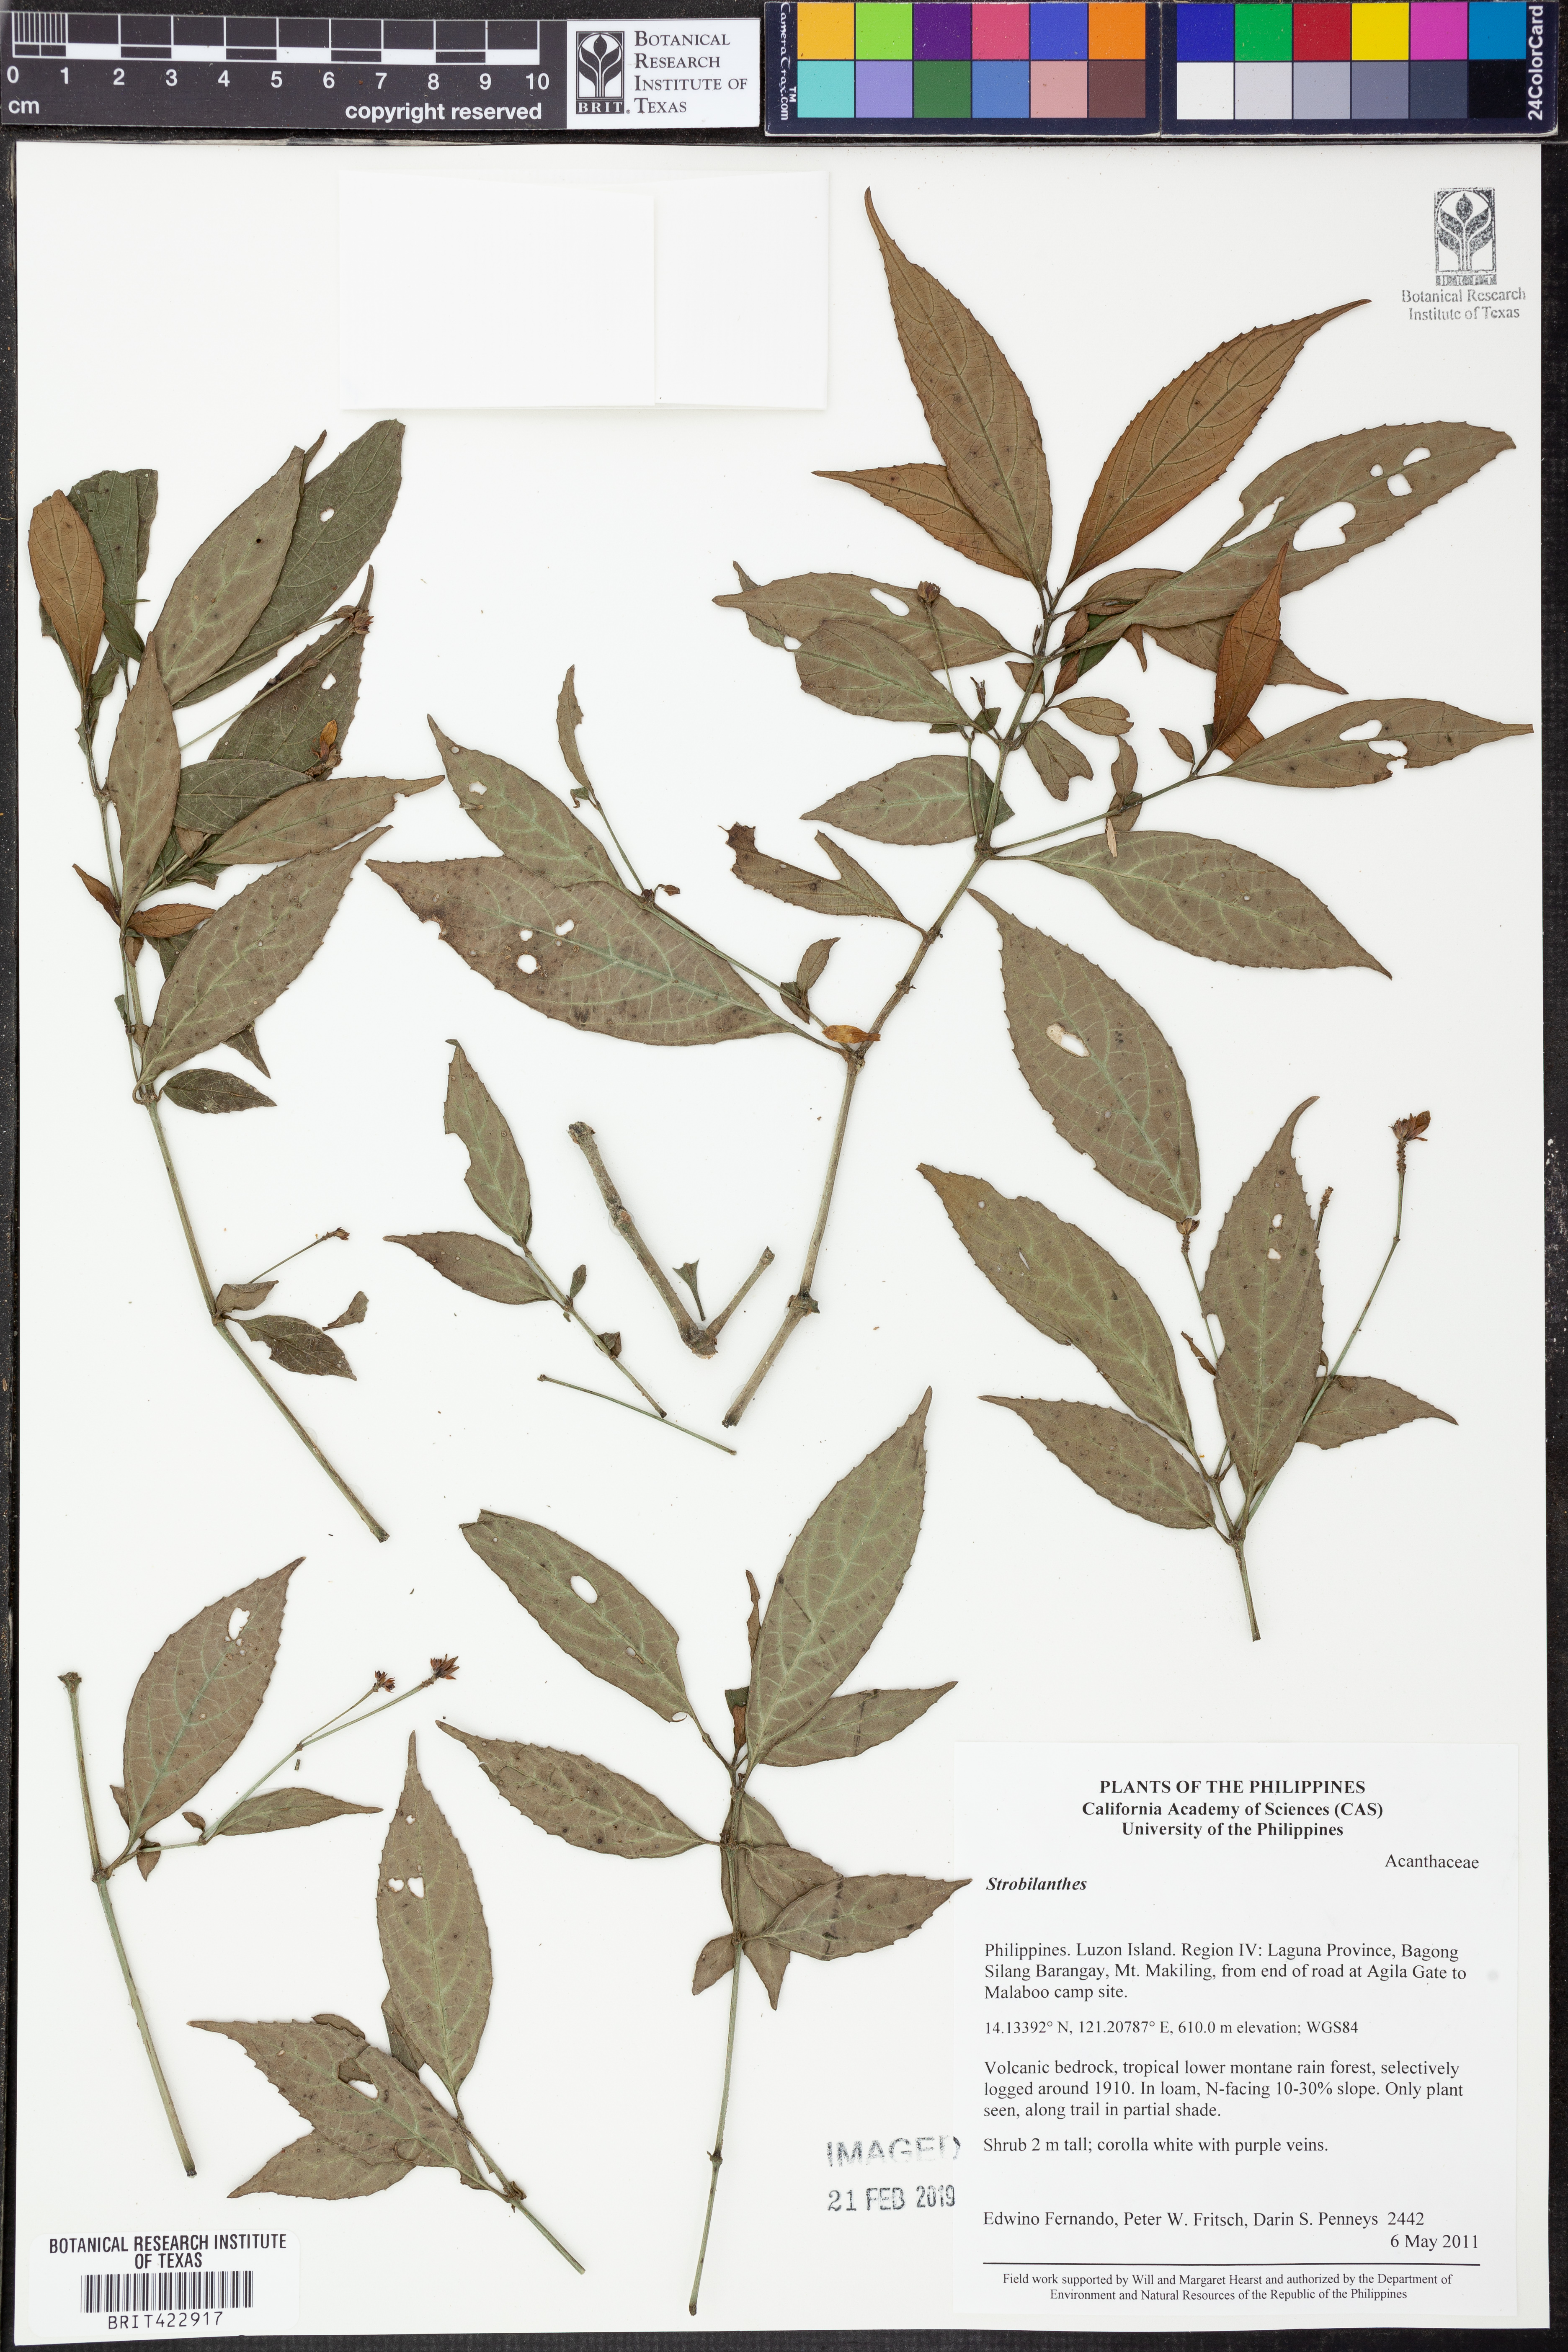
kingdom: Plantae
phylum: Tracheophyta
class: Magnoliopsida
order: Lamiales
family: Acanthaceae
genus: Strobilanthes
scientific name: Strobilanthes
